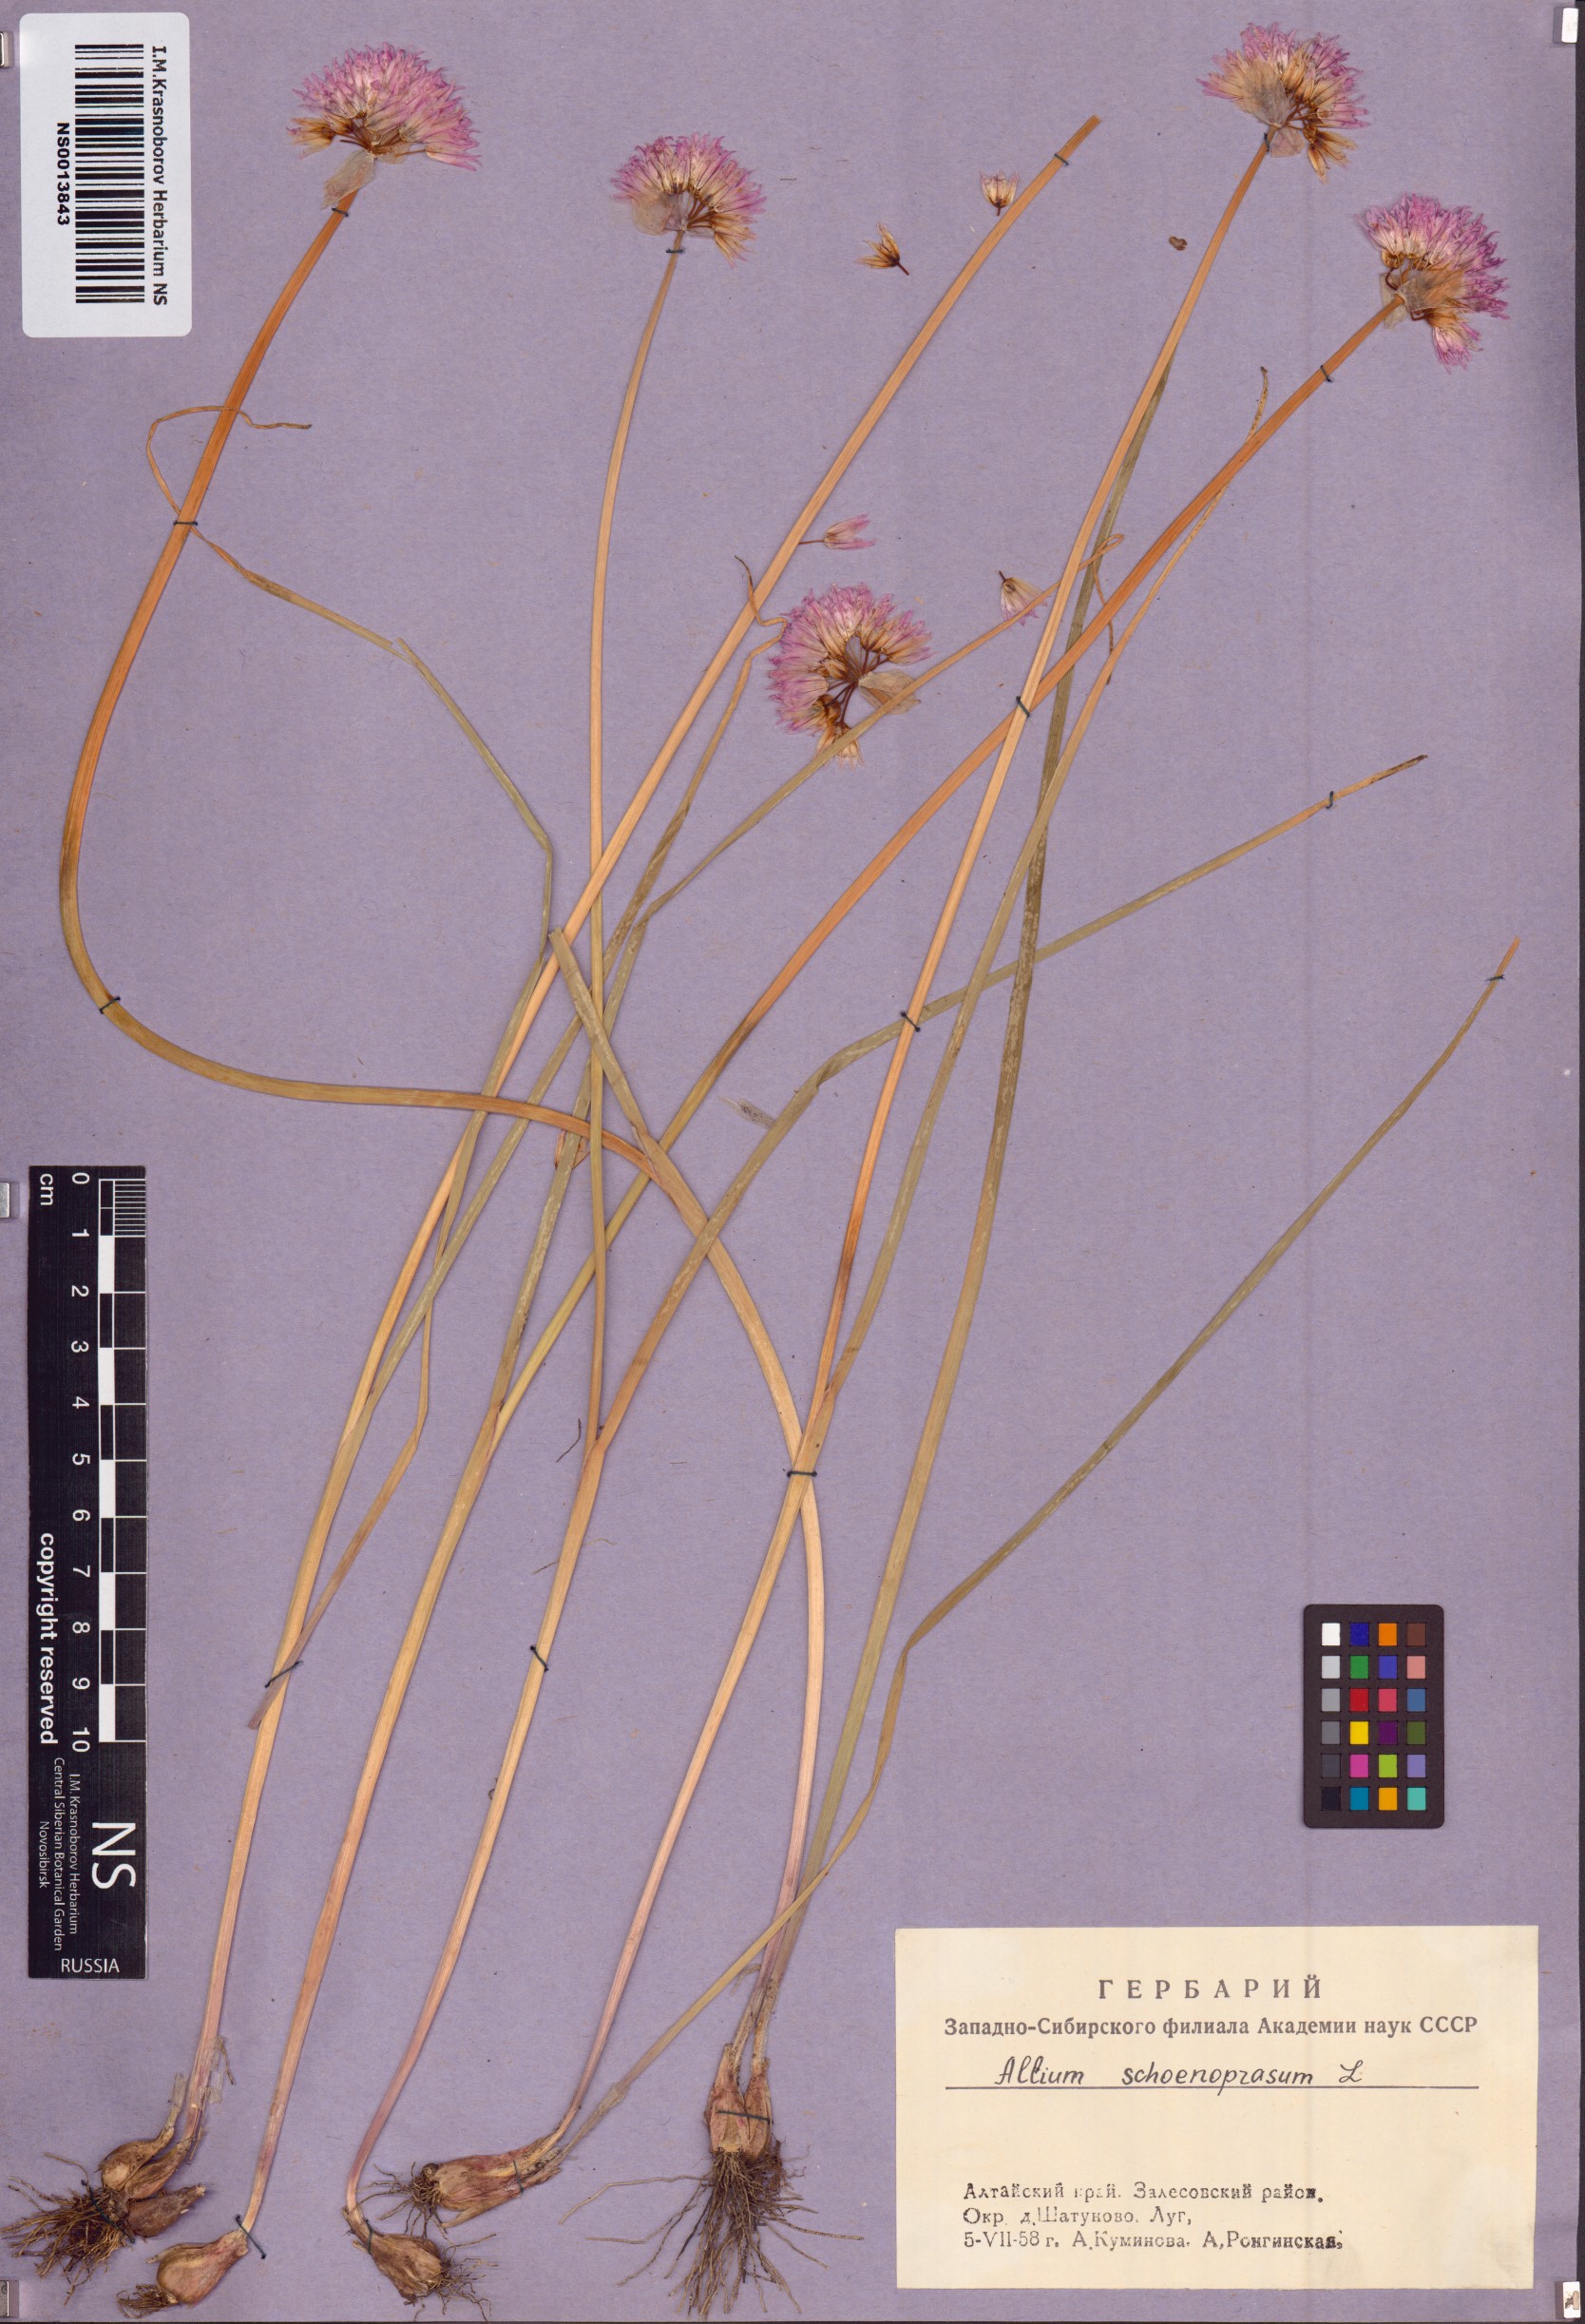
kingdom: Plantae
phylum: Tracheophyta
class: Liliopsida
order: Asparagales
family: Amaryllidaceae
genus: Allium
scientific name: Allium schoenoprasum
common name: Chives
